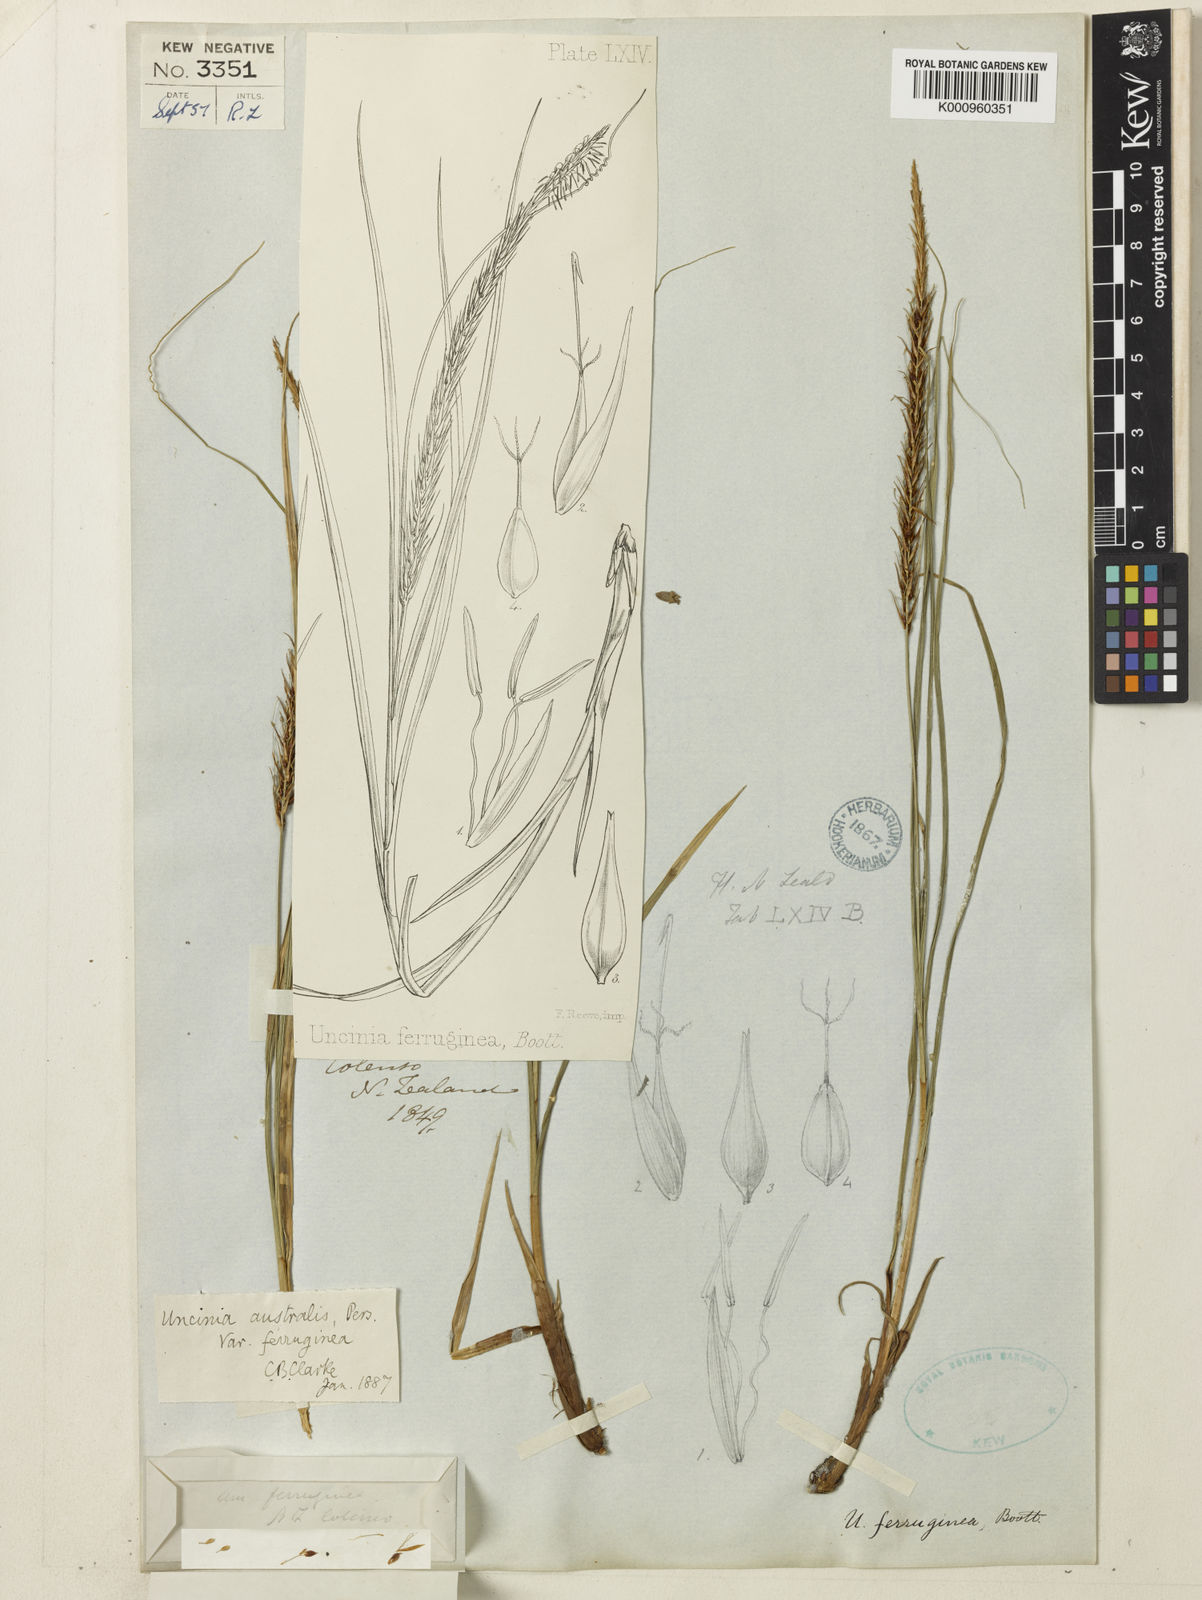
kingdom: Fungi
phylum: Ascomycota
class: Leotiomycetes
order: Helotiales
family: Hamatocanthoscyphaceae
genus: Uncinia
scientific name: Uncinia
